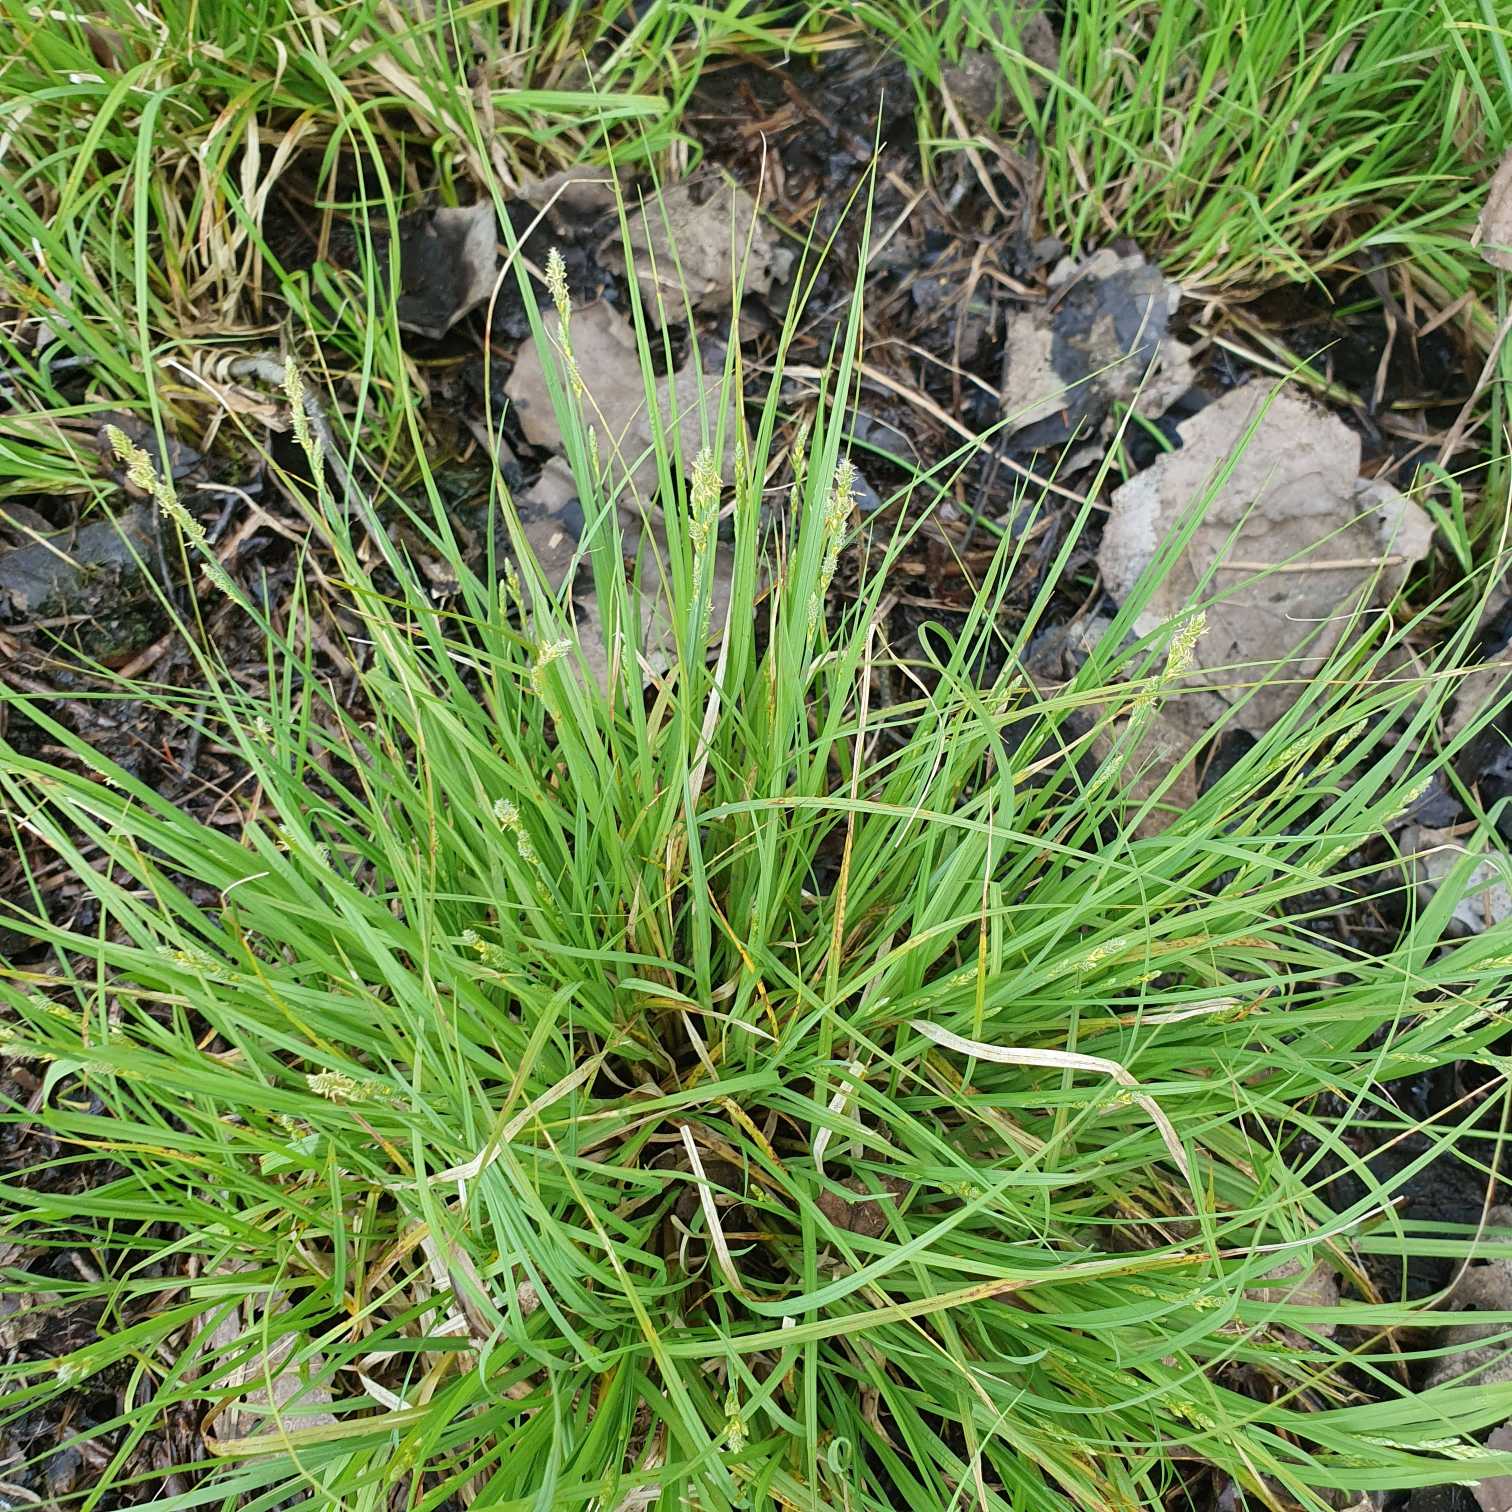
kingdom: Plantae
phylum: Tracheophyta
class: Liliopsida
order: Poales
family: Cyperaceae
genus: Carex
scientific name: Carex canescens
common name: Grå star
